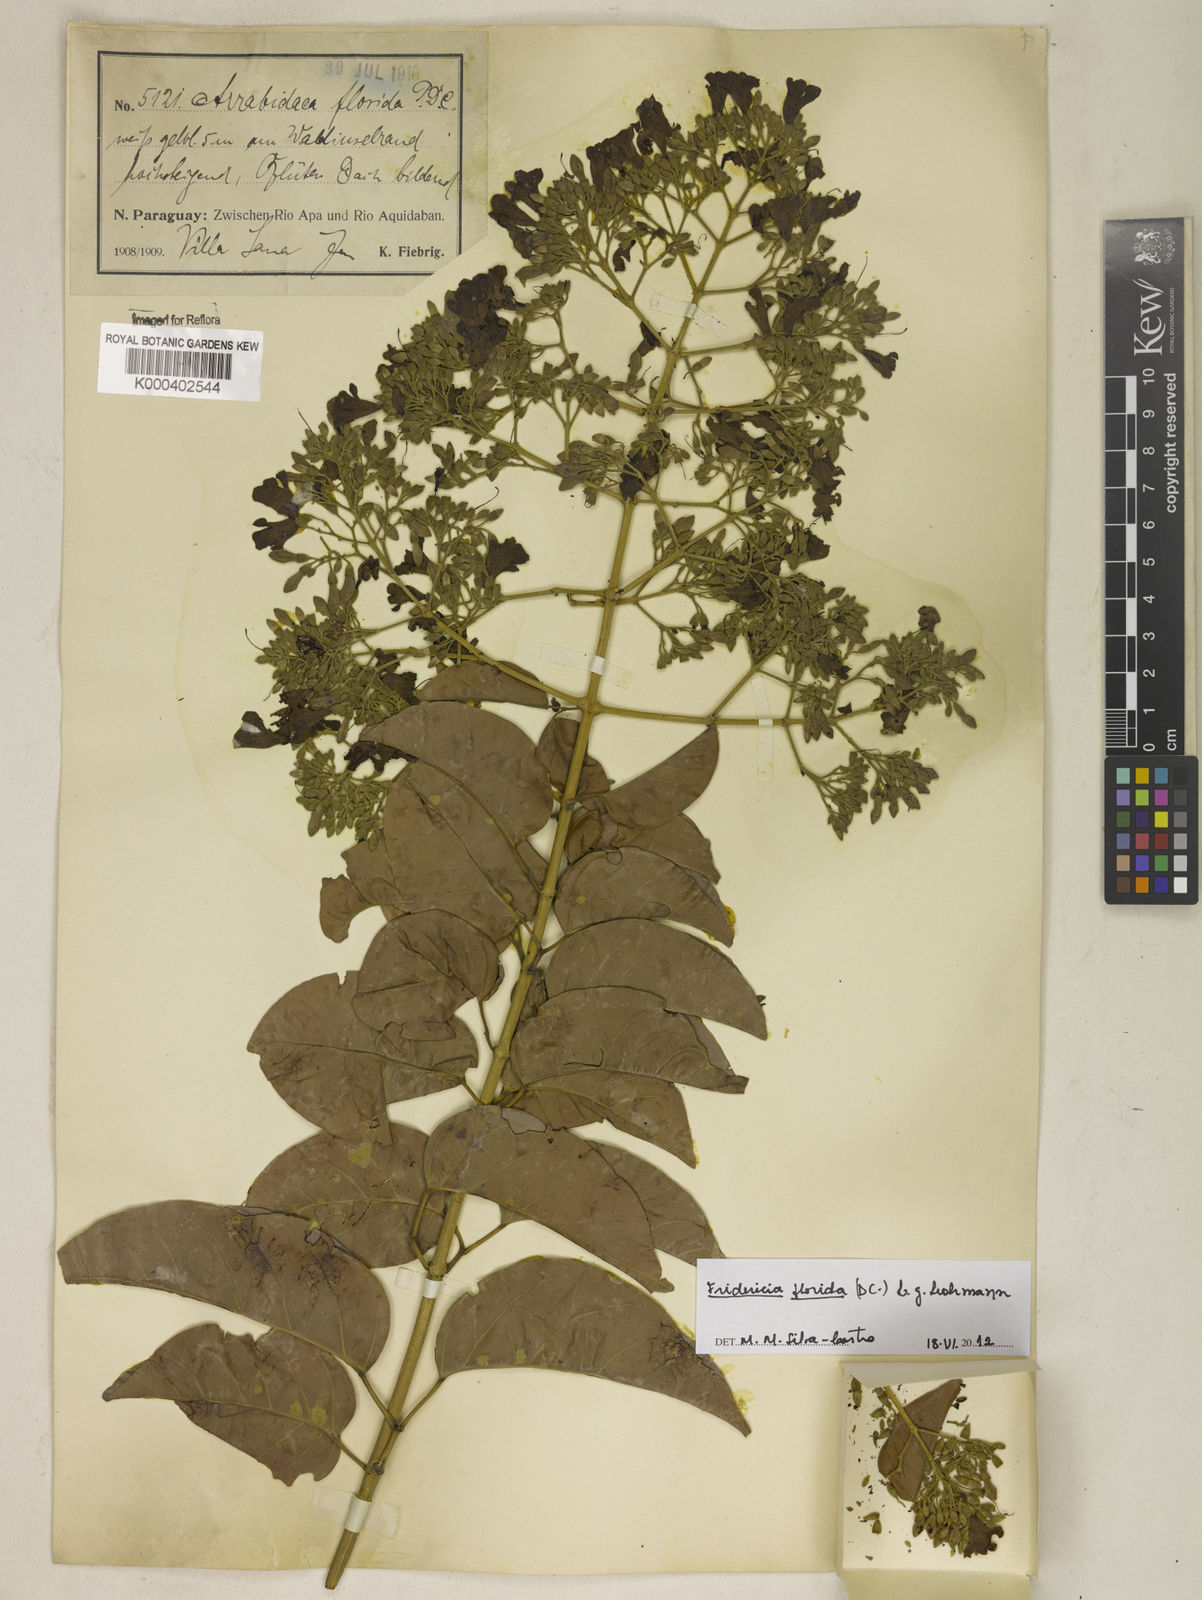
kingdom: Plantae
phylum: Tracheophyta
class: Magnoliopsida
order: Lamiales
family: Bignoniaceae
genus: Fridericia
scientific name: Fridericia florida
